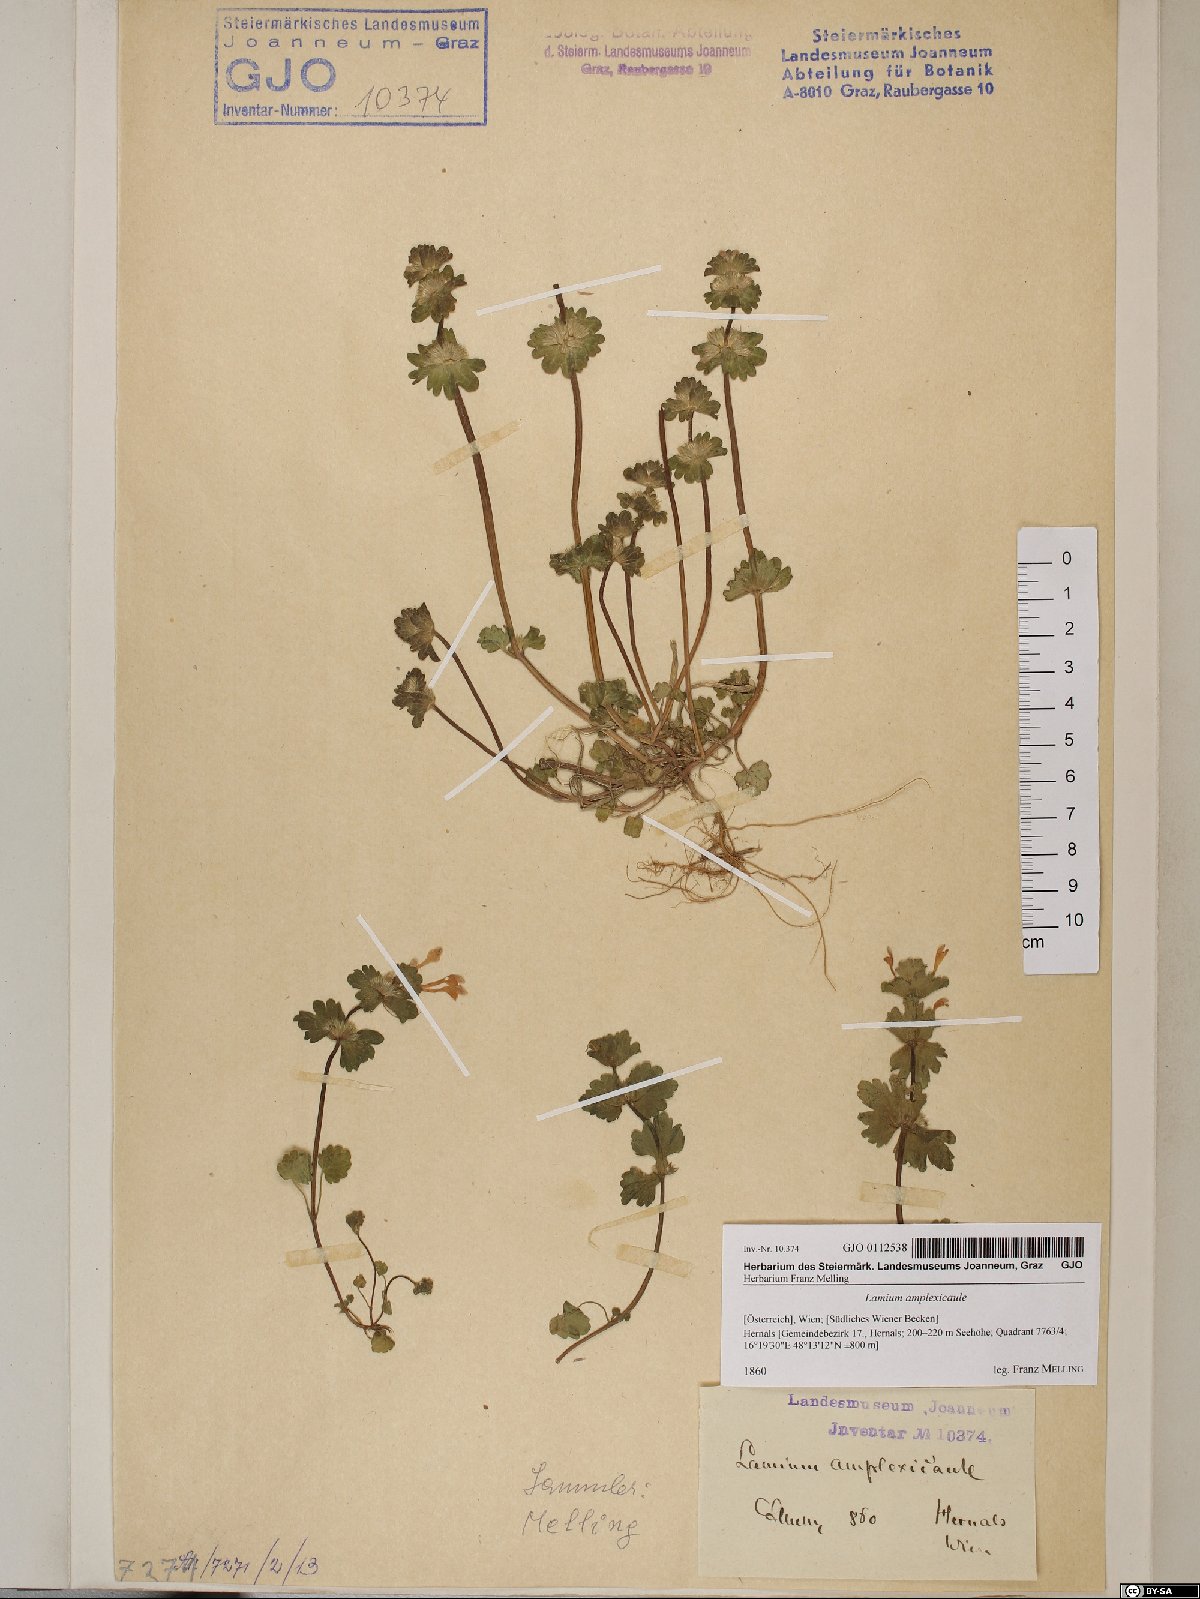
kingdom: Plantae
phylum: Tracheophyta
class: Magnoliopsida
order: Lamiales
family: Lamiaceae
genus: Lamium
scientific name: Lamium amplexicaule
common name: Henbit dead-nettle
